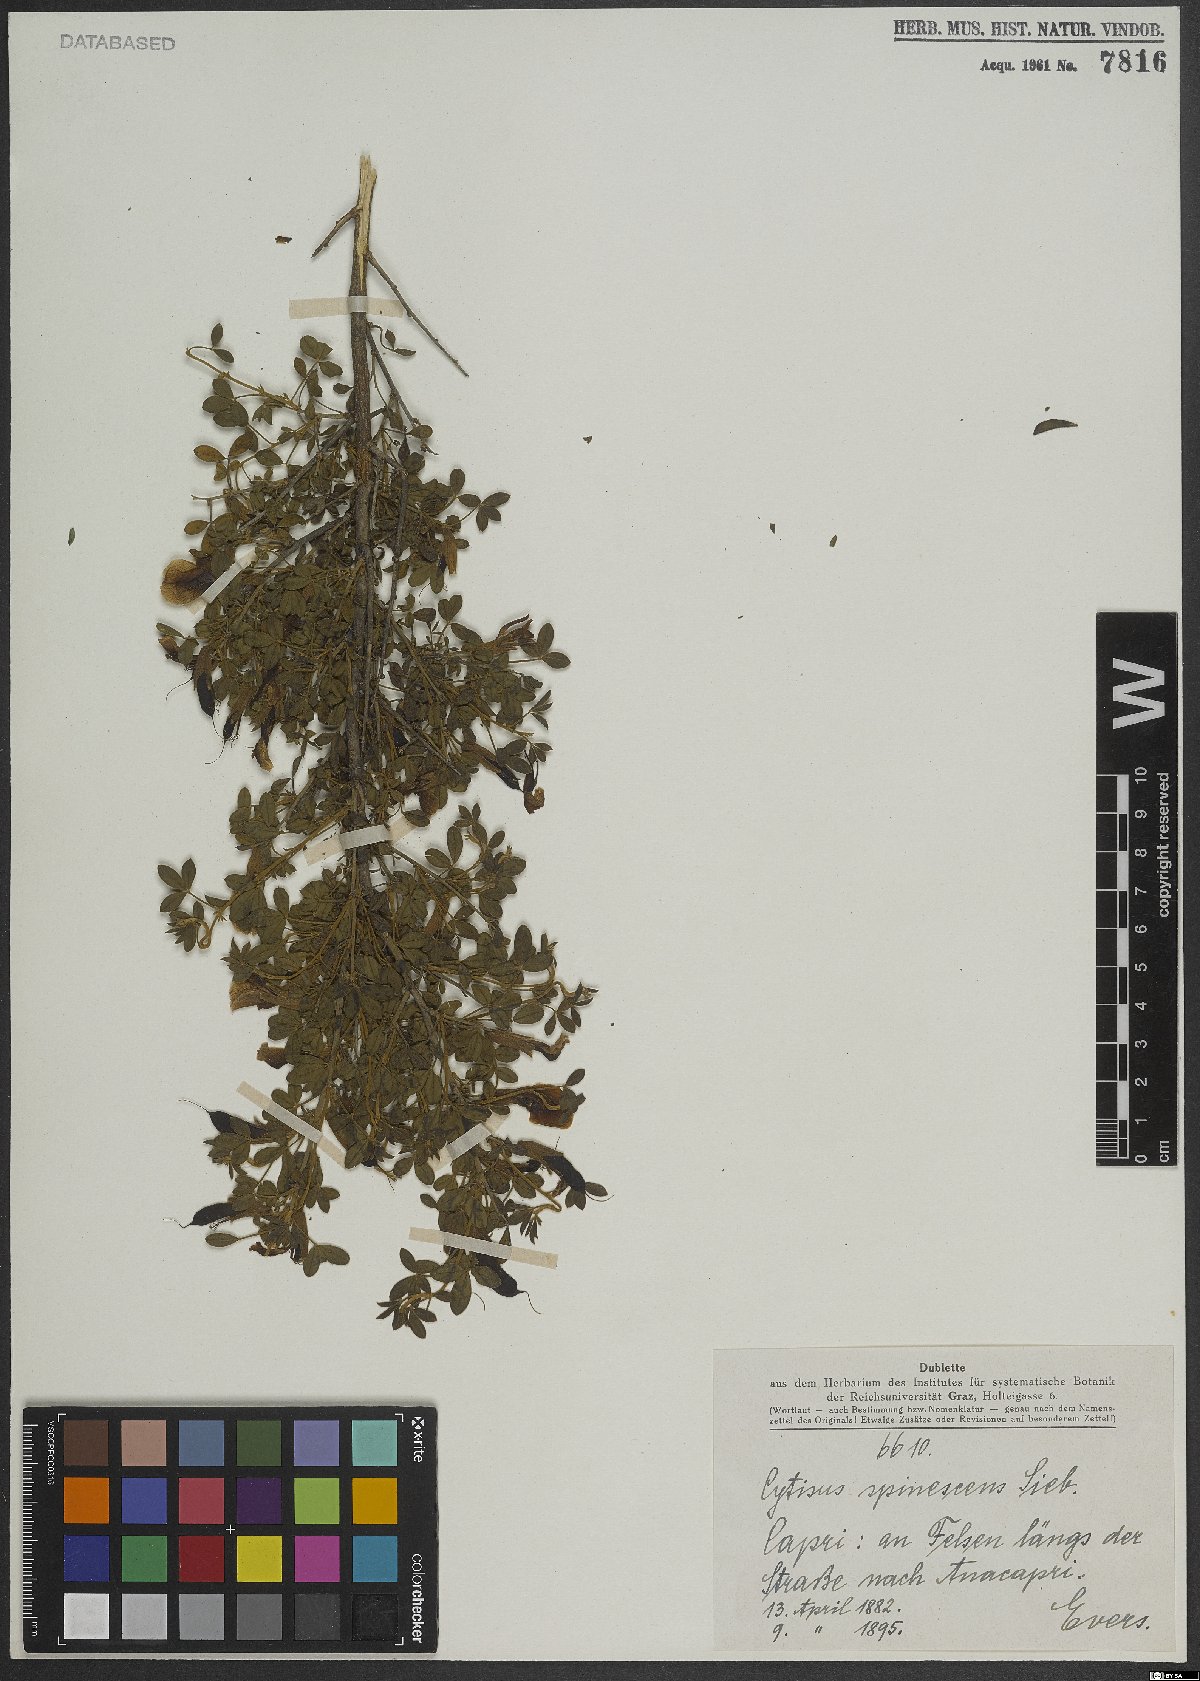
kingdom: Plantae
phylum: Tracheophyta
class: Magnoliopsida
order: Fabales
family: Fabaceae
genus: Chamaecytisus
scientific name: Chamaecytisus spinescens
